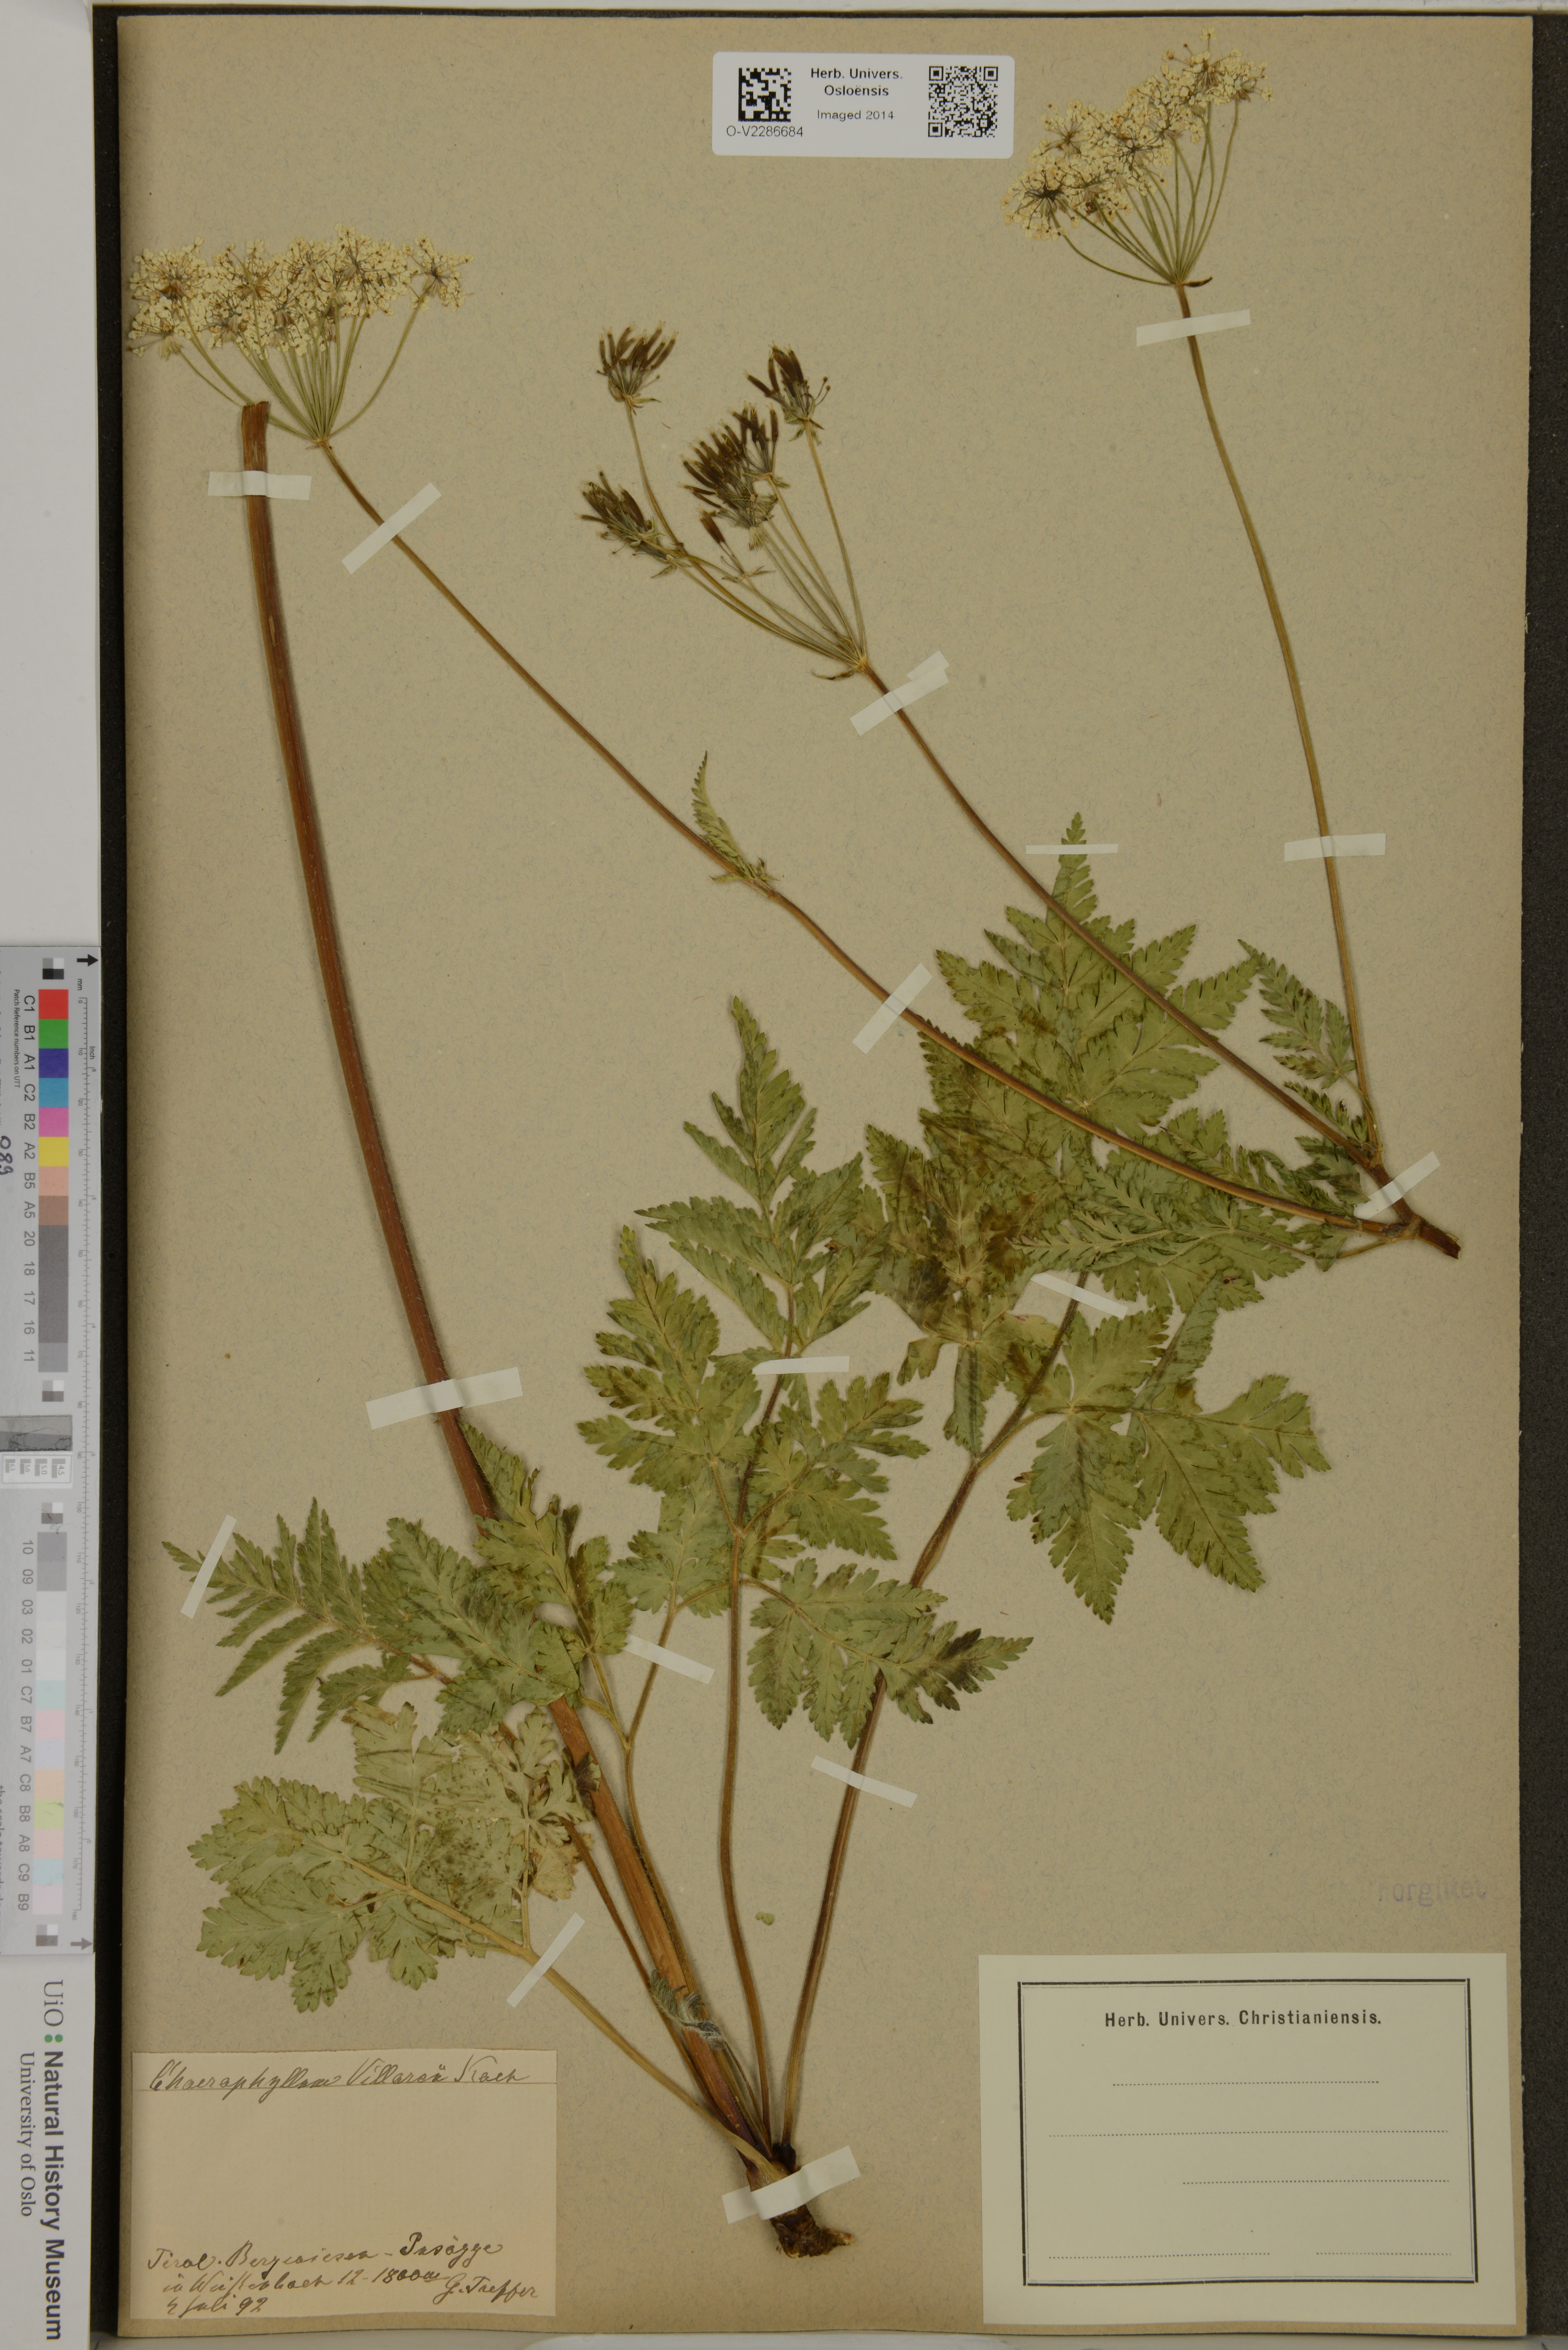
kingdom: Plantae
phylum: Tracheophyta
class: Magnoliopsida
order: Apiales
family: Apiaceae
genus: Chaerophyllum
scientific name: Chaerophyllum villarsii
